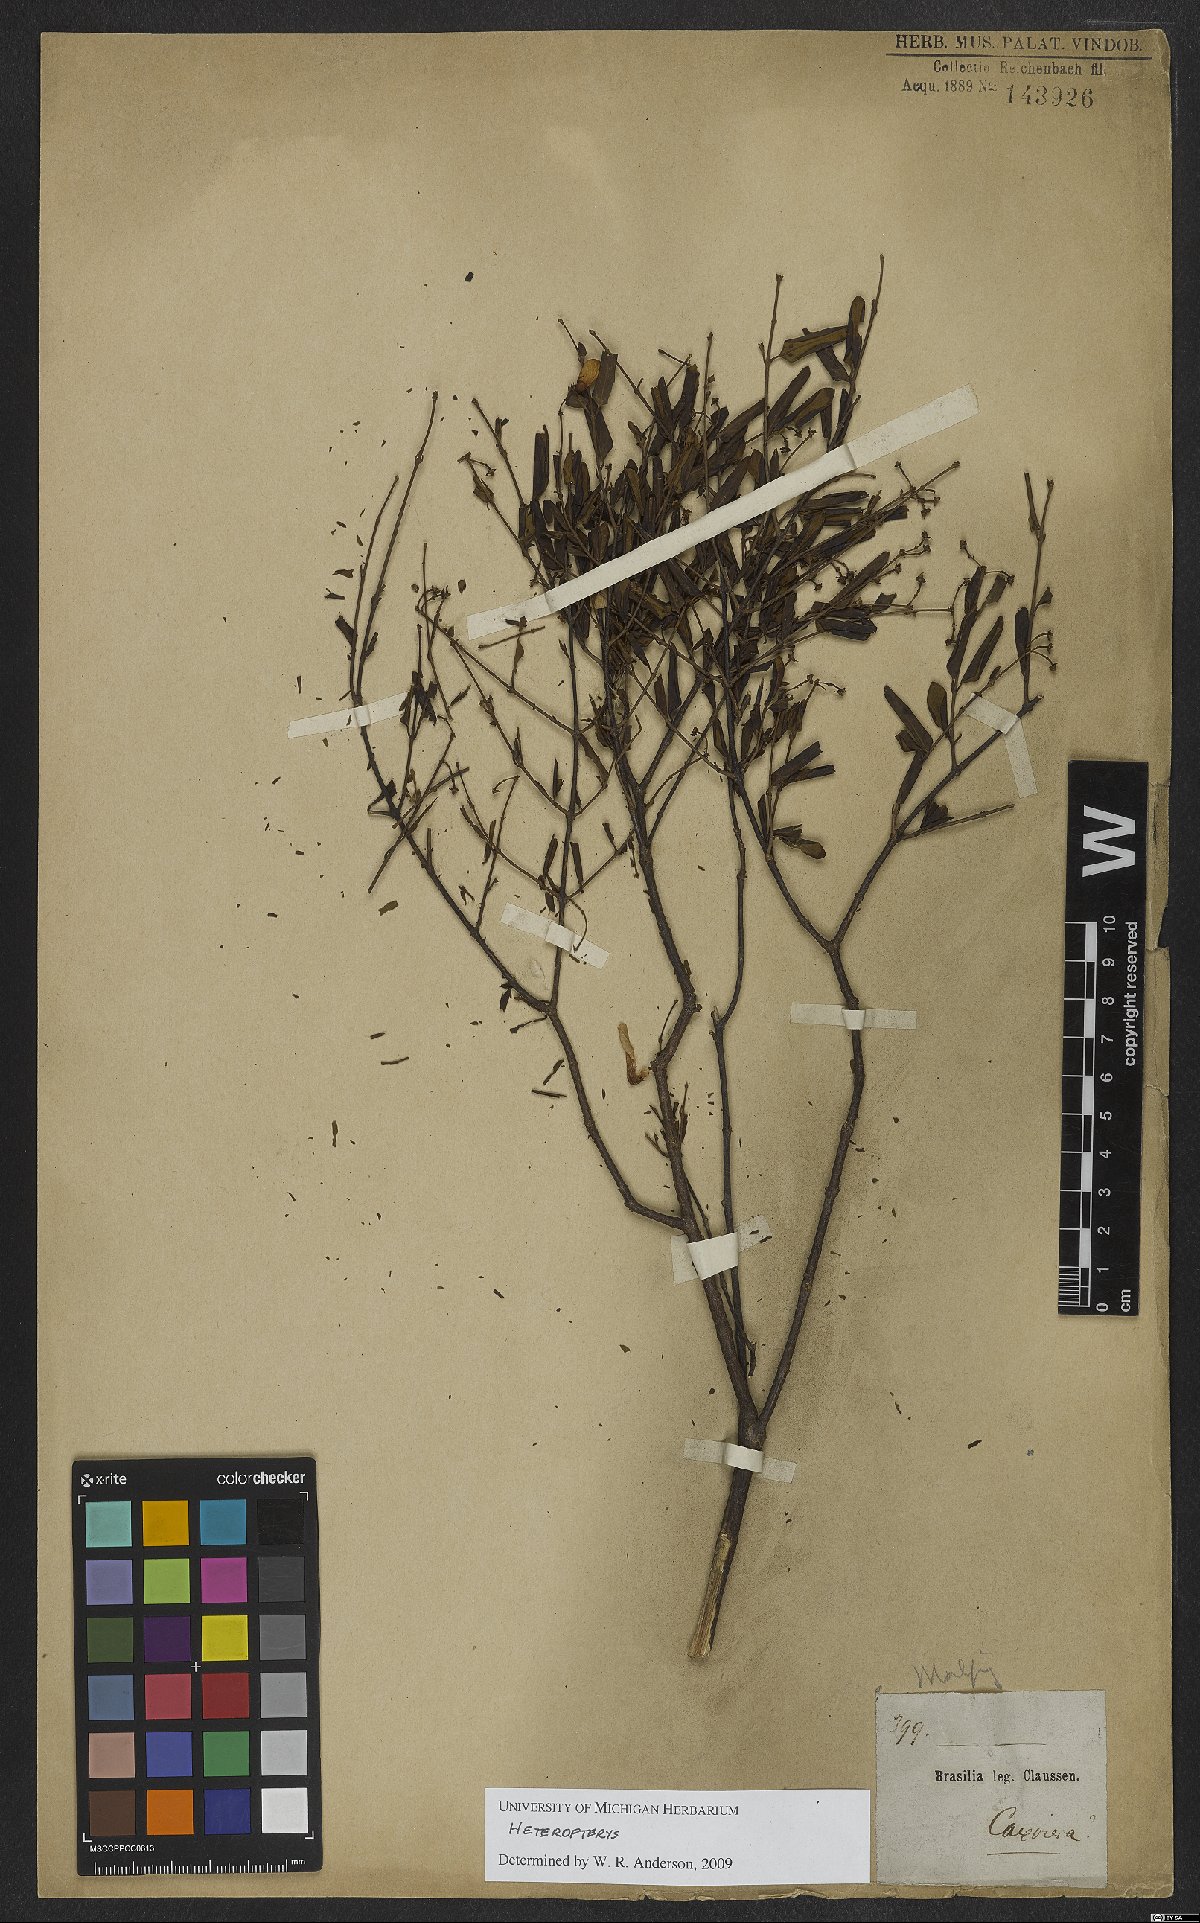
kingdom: Plantae
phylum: Tracheophyta
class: Magnoliopsida
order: Malpighiales
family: Malpighiaceae
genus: Heteropterys
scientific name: Heteropterys
